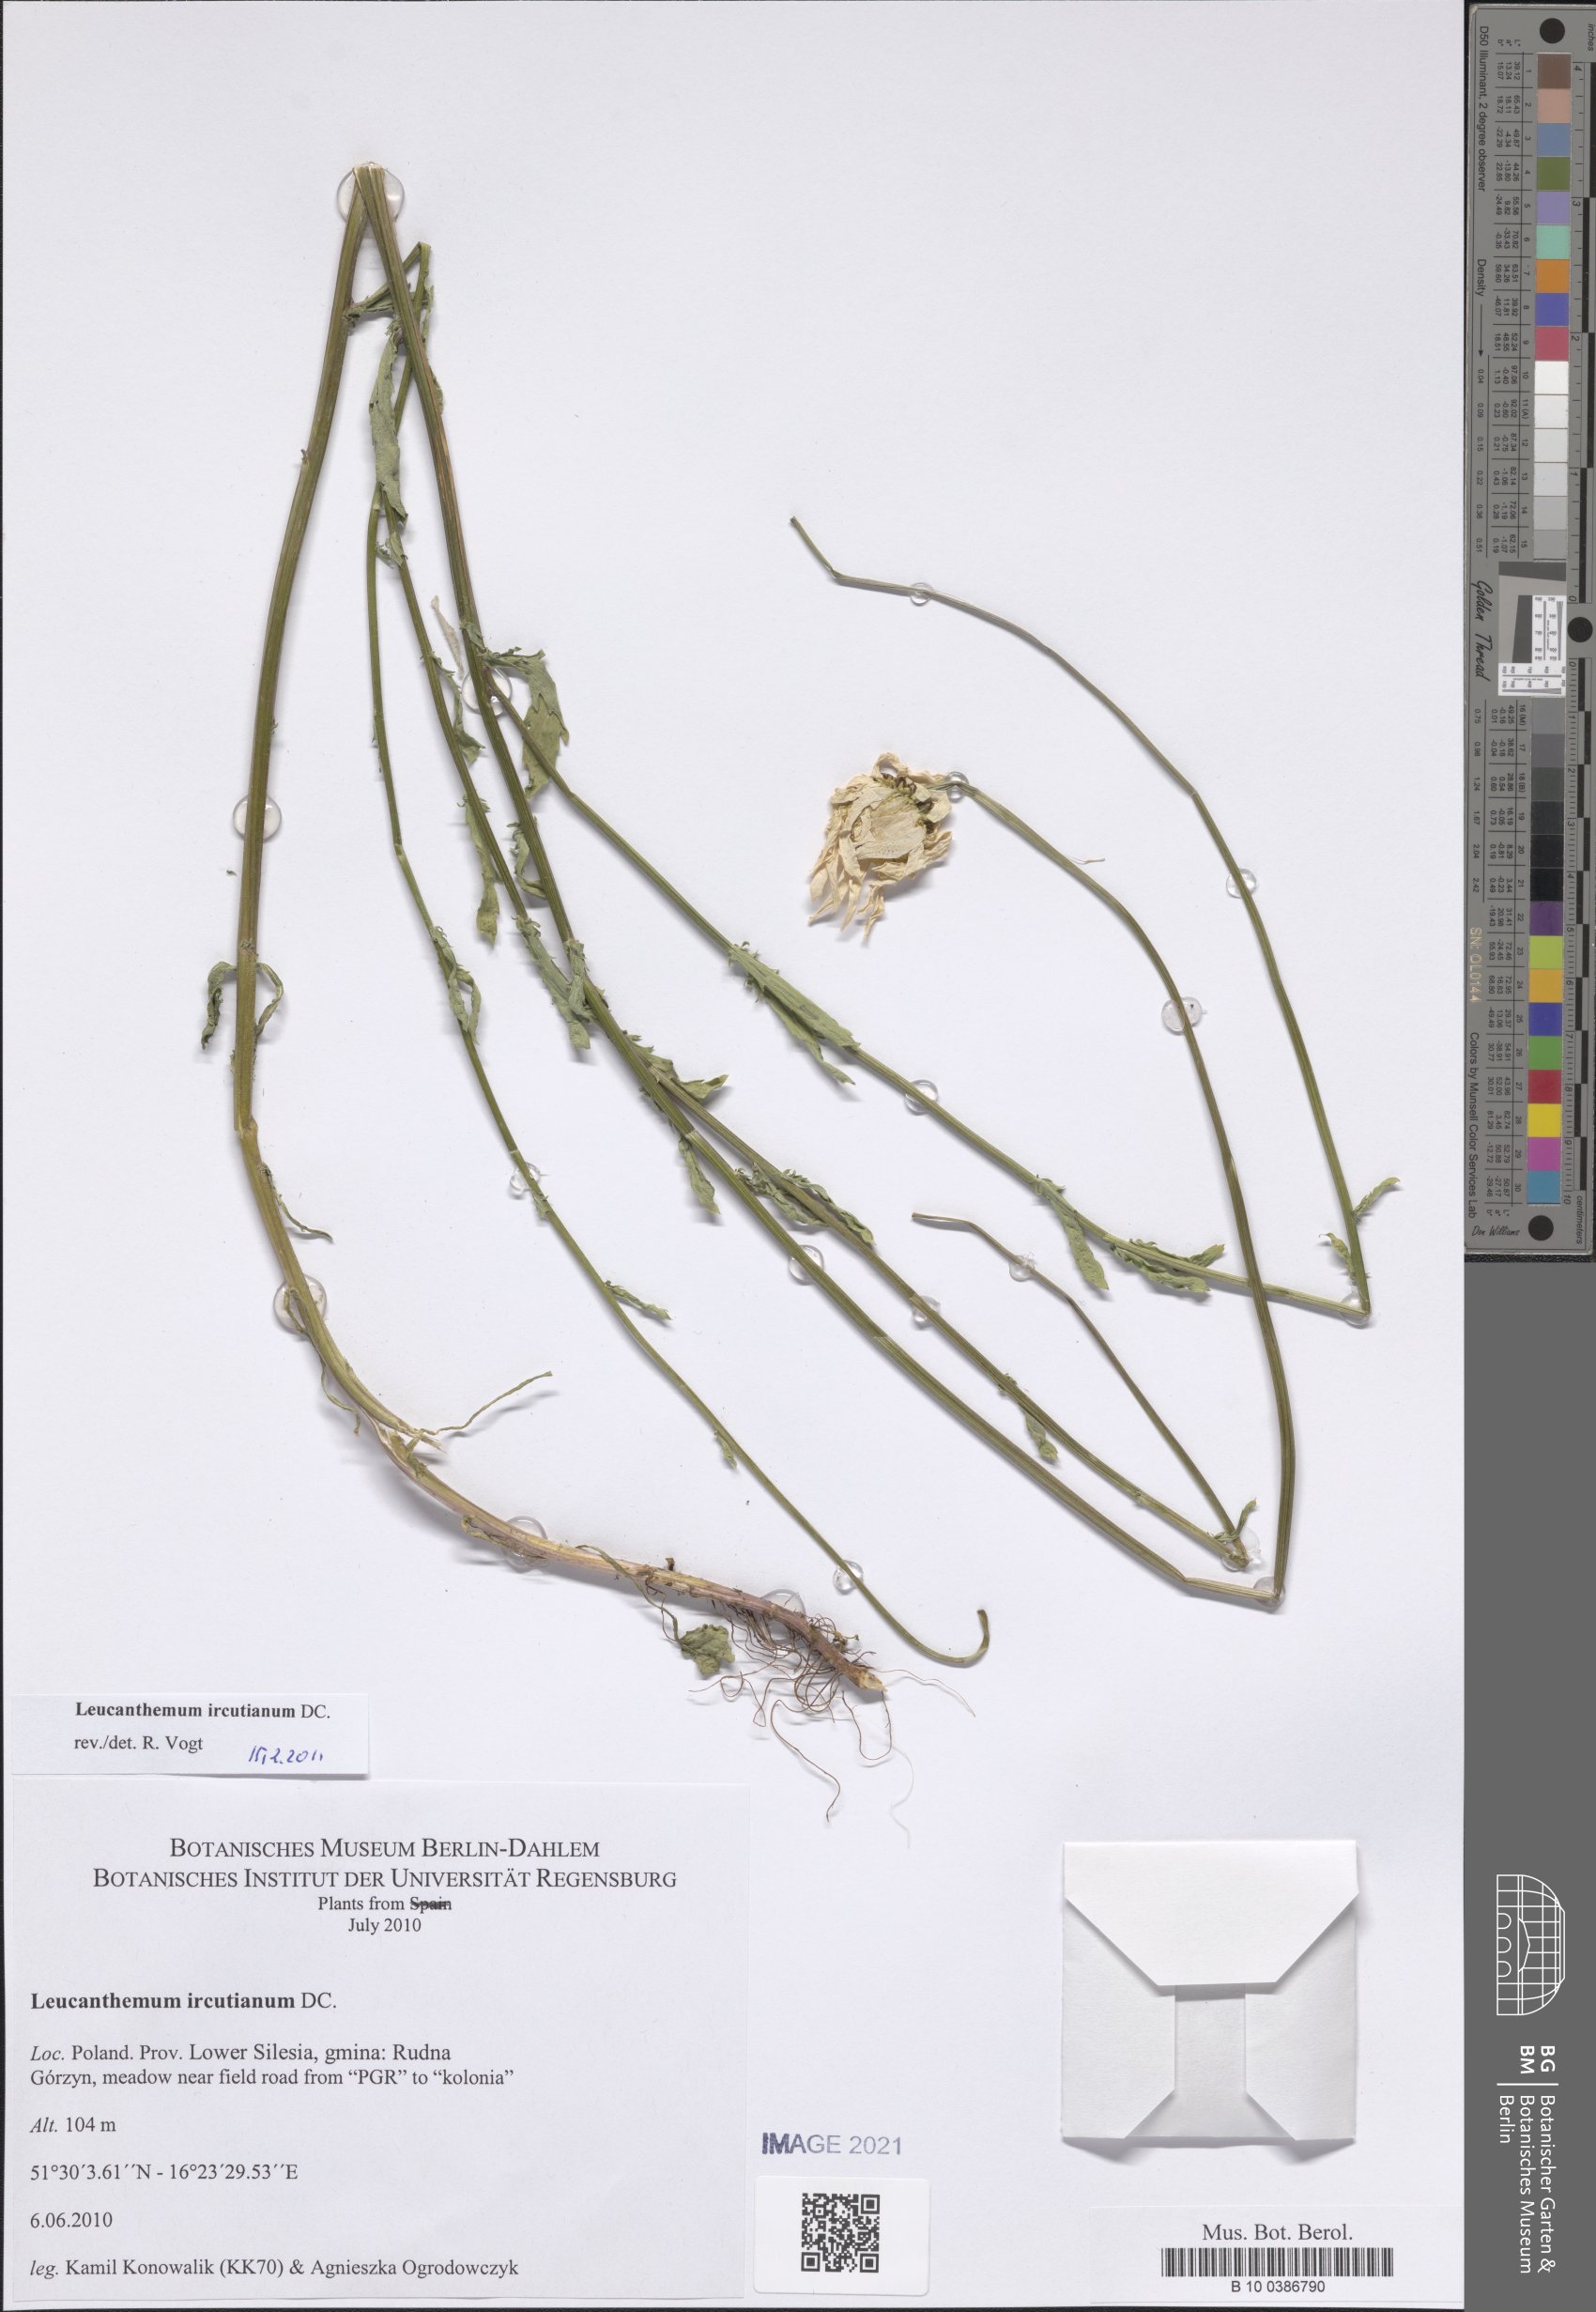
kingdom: Plantae
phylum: Tracheophyta
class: Magnoliopsida
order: Asterales
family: Asteraceae
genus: Leucanthemum
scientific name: Leucanthemum vulgare
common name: Oxeye daisy
